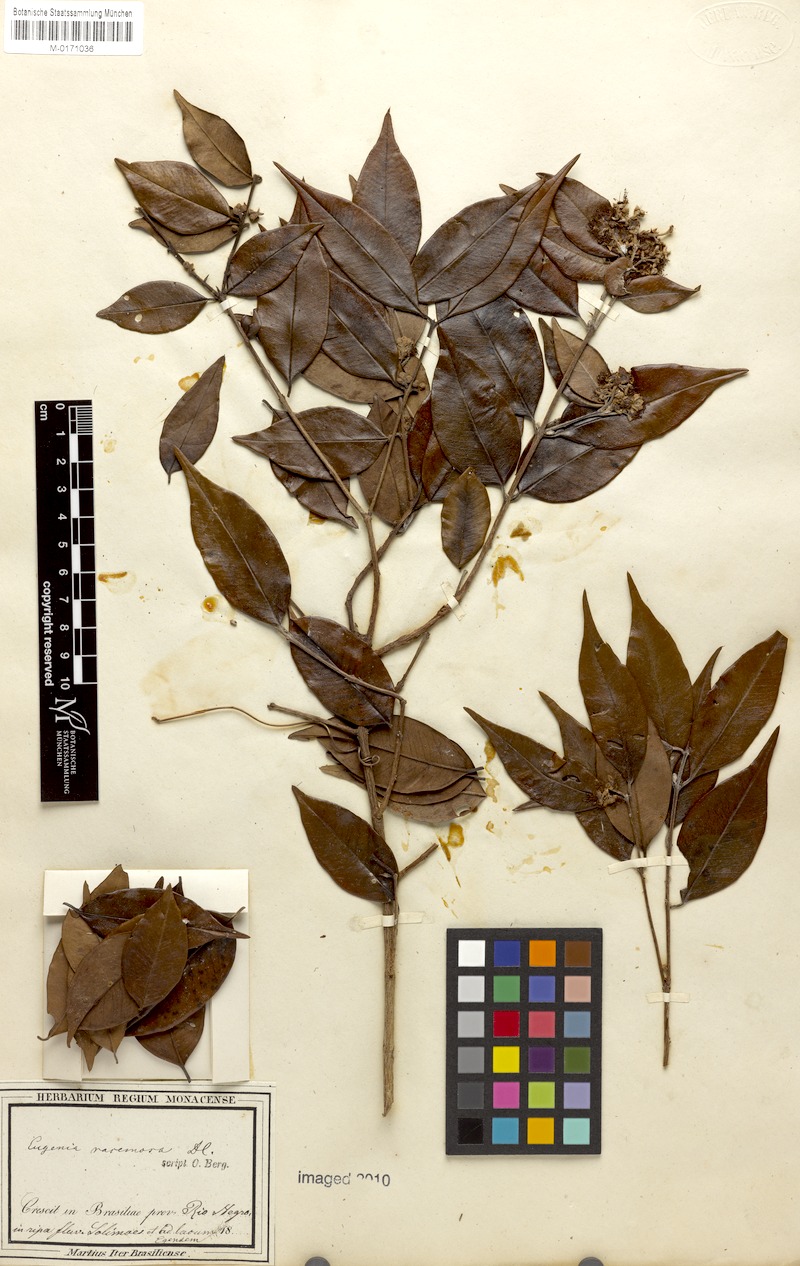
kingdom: Plantae
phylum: Tracheophyta
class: Magnoliopsida
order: Myrtales
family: Myrtaceae
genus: Psidium
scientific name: Psidium densicomum
